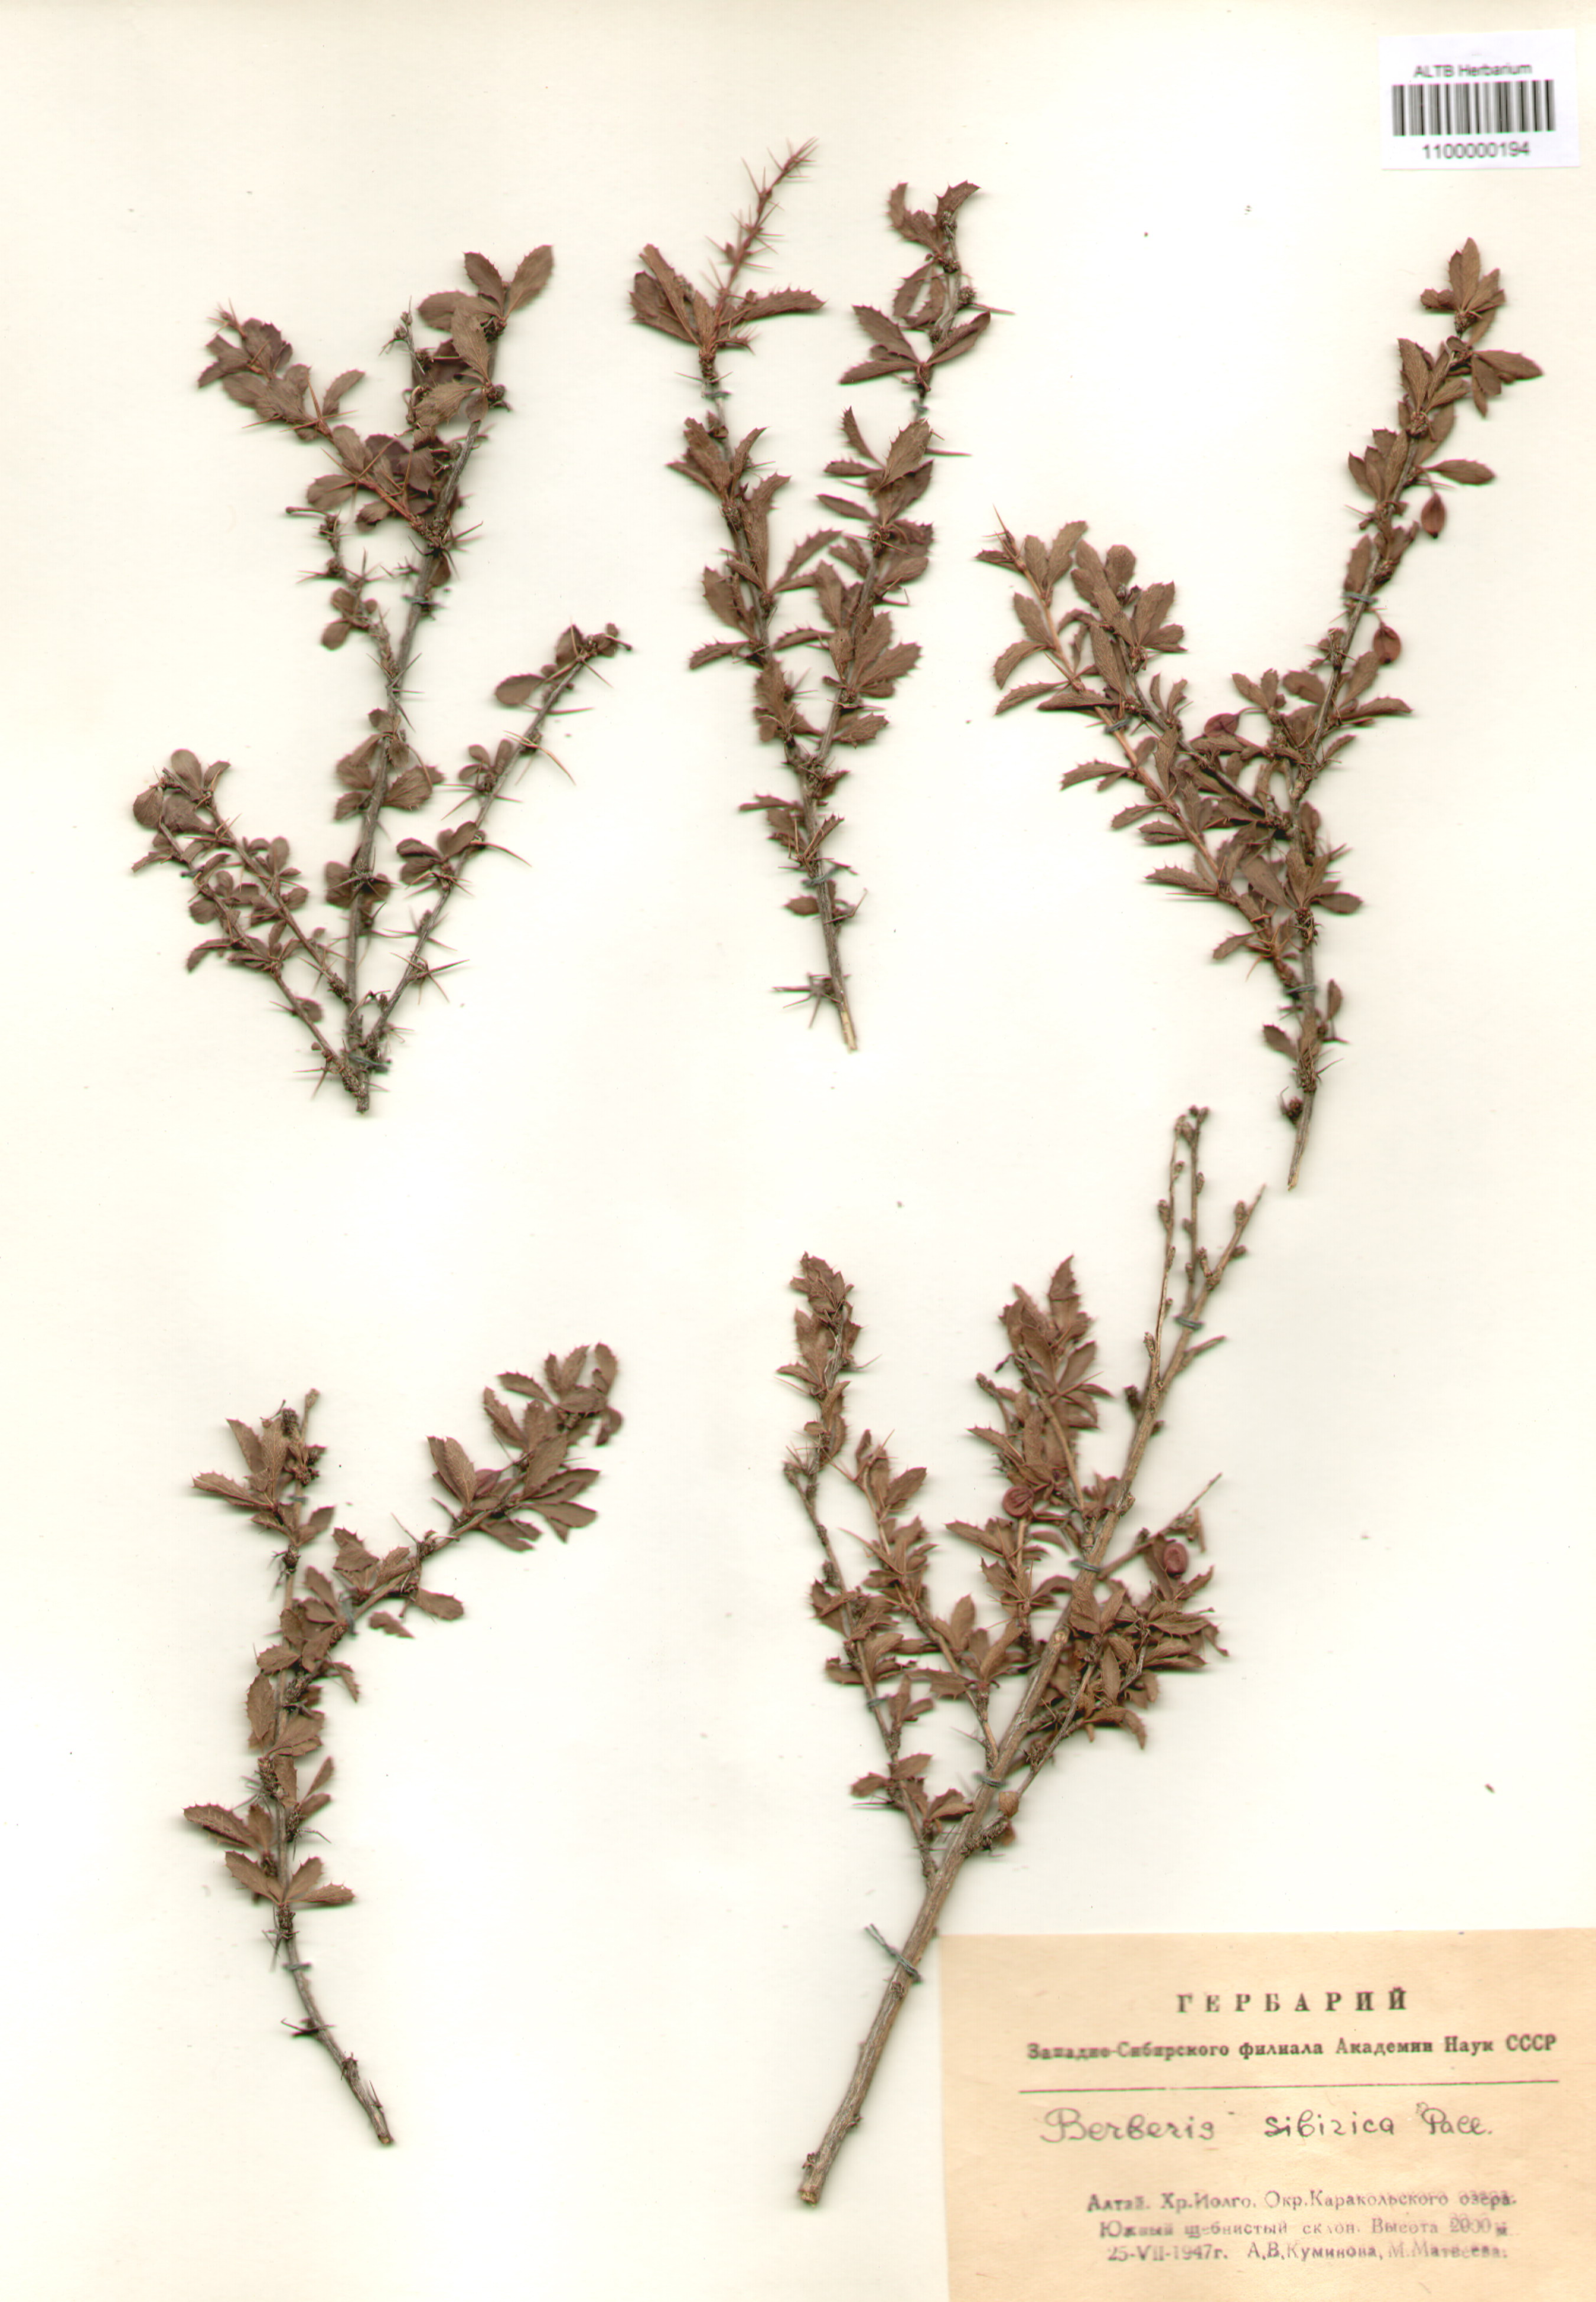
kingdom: Plantae
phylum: Tracheophyta
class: Magnoliopsida
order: Ranunculales
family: Berberidaceae
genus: Berberis
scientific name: Berberis sibirica
